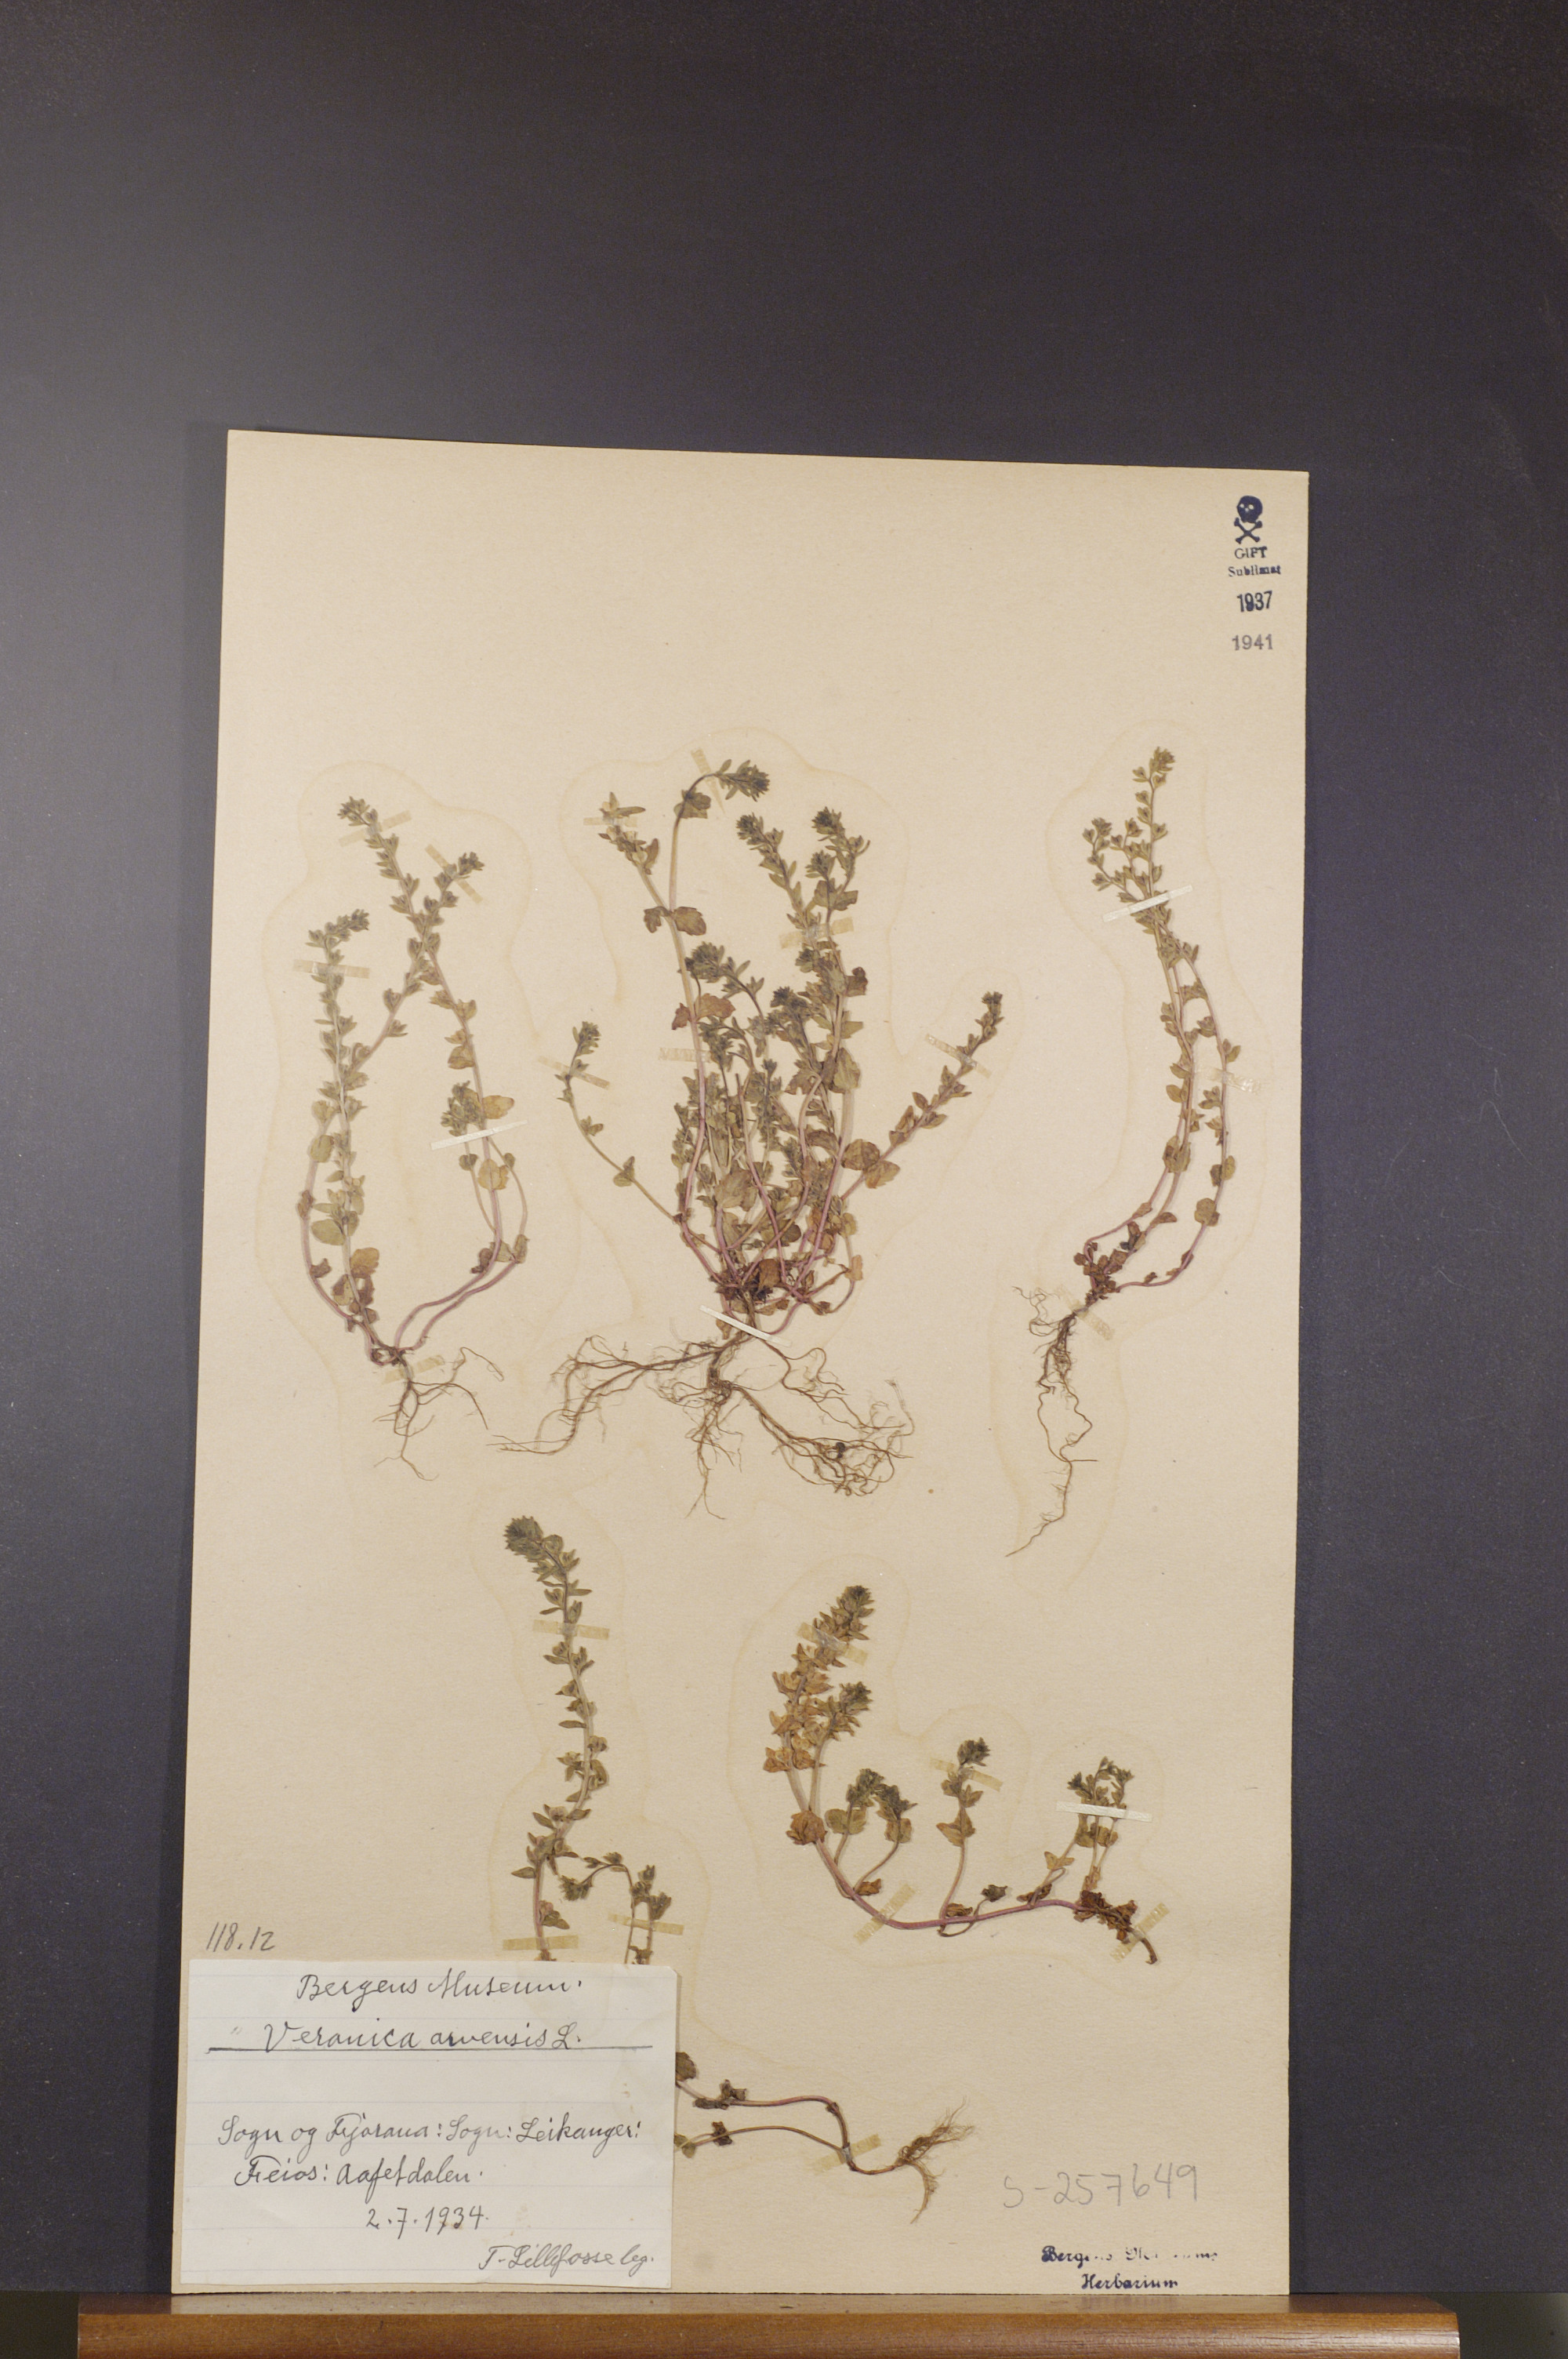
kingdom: Plantae
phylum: Tracheophyta
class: Magnoliopsida
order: Lamiales
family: Plantaginaceae
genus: Veronica
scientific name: Veronica arvensis
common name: Corn speedwell
